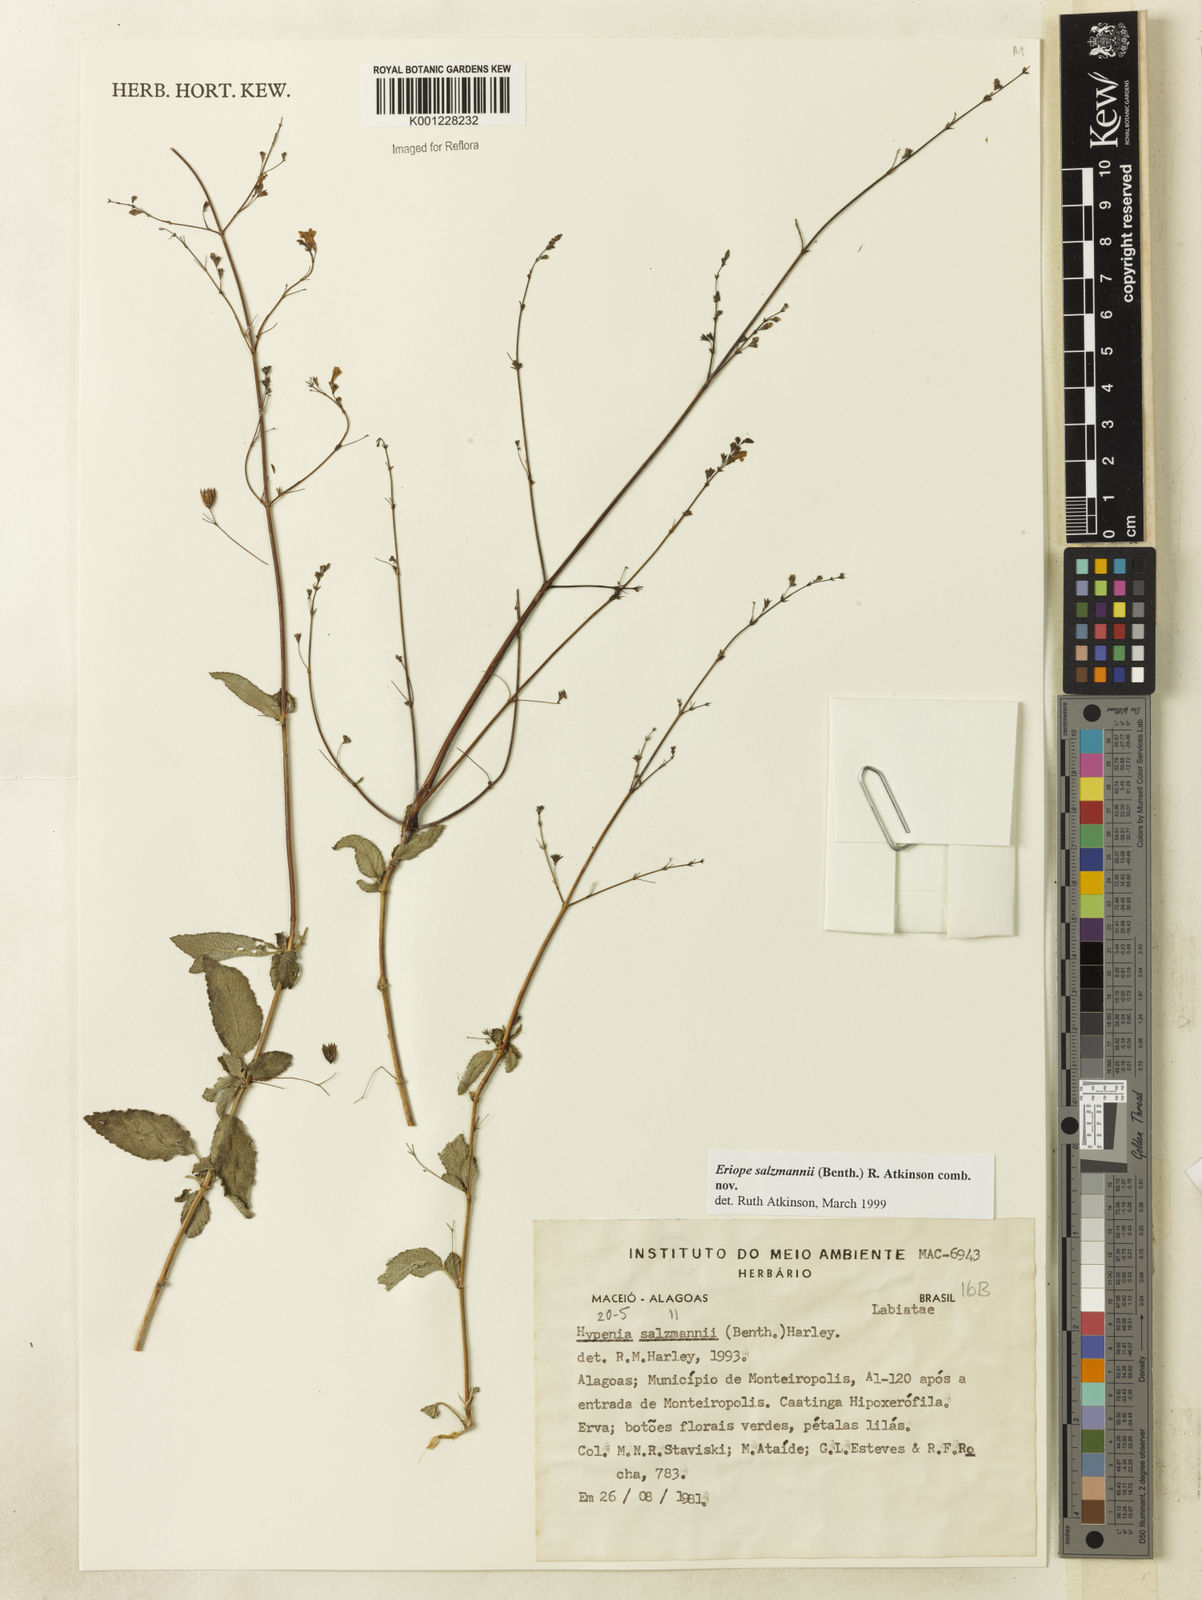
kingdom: Plantae
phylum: Tracheophyta
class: Magnoliopsida
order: Lamiales
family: Lamiaceae
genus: Hypenia
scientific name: Hypenia salzmannii
